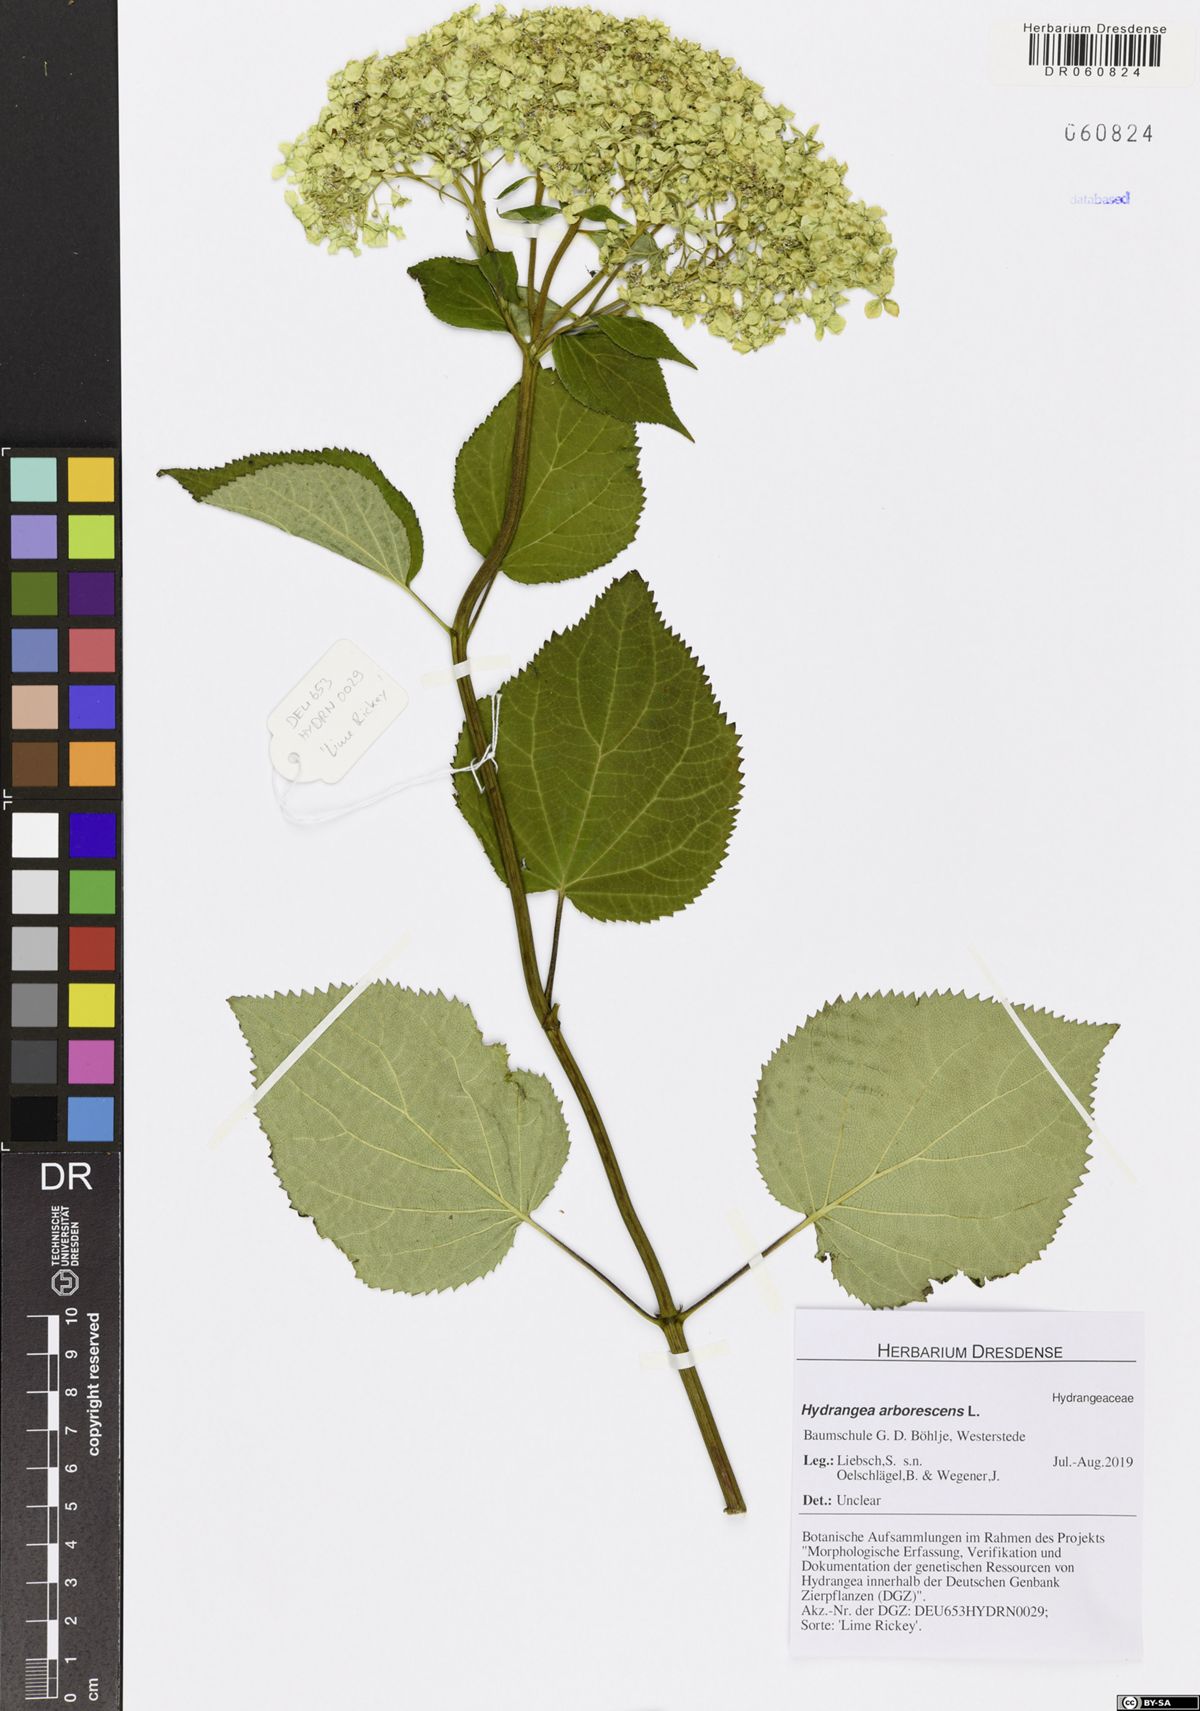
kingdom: Plantae
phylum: Tracheophyta
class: Magnoliopsida
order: Cornales
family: Hydrangeaceae
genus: Hydrangea
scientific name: Hydrangea arborescens
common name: Sevenbark
